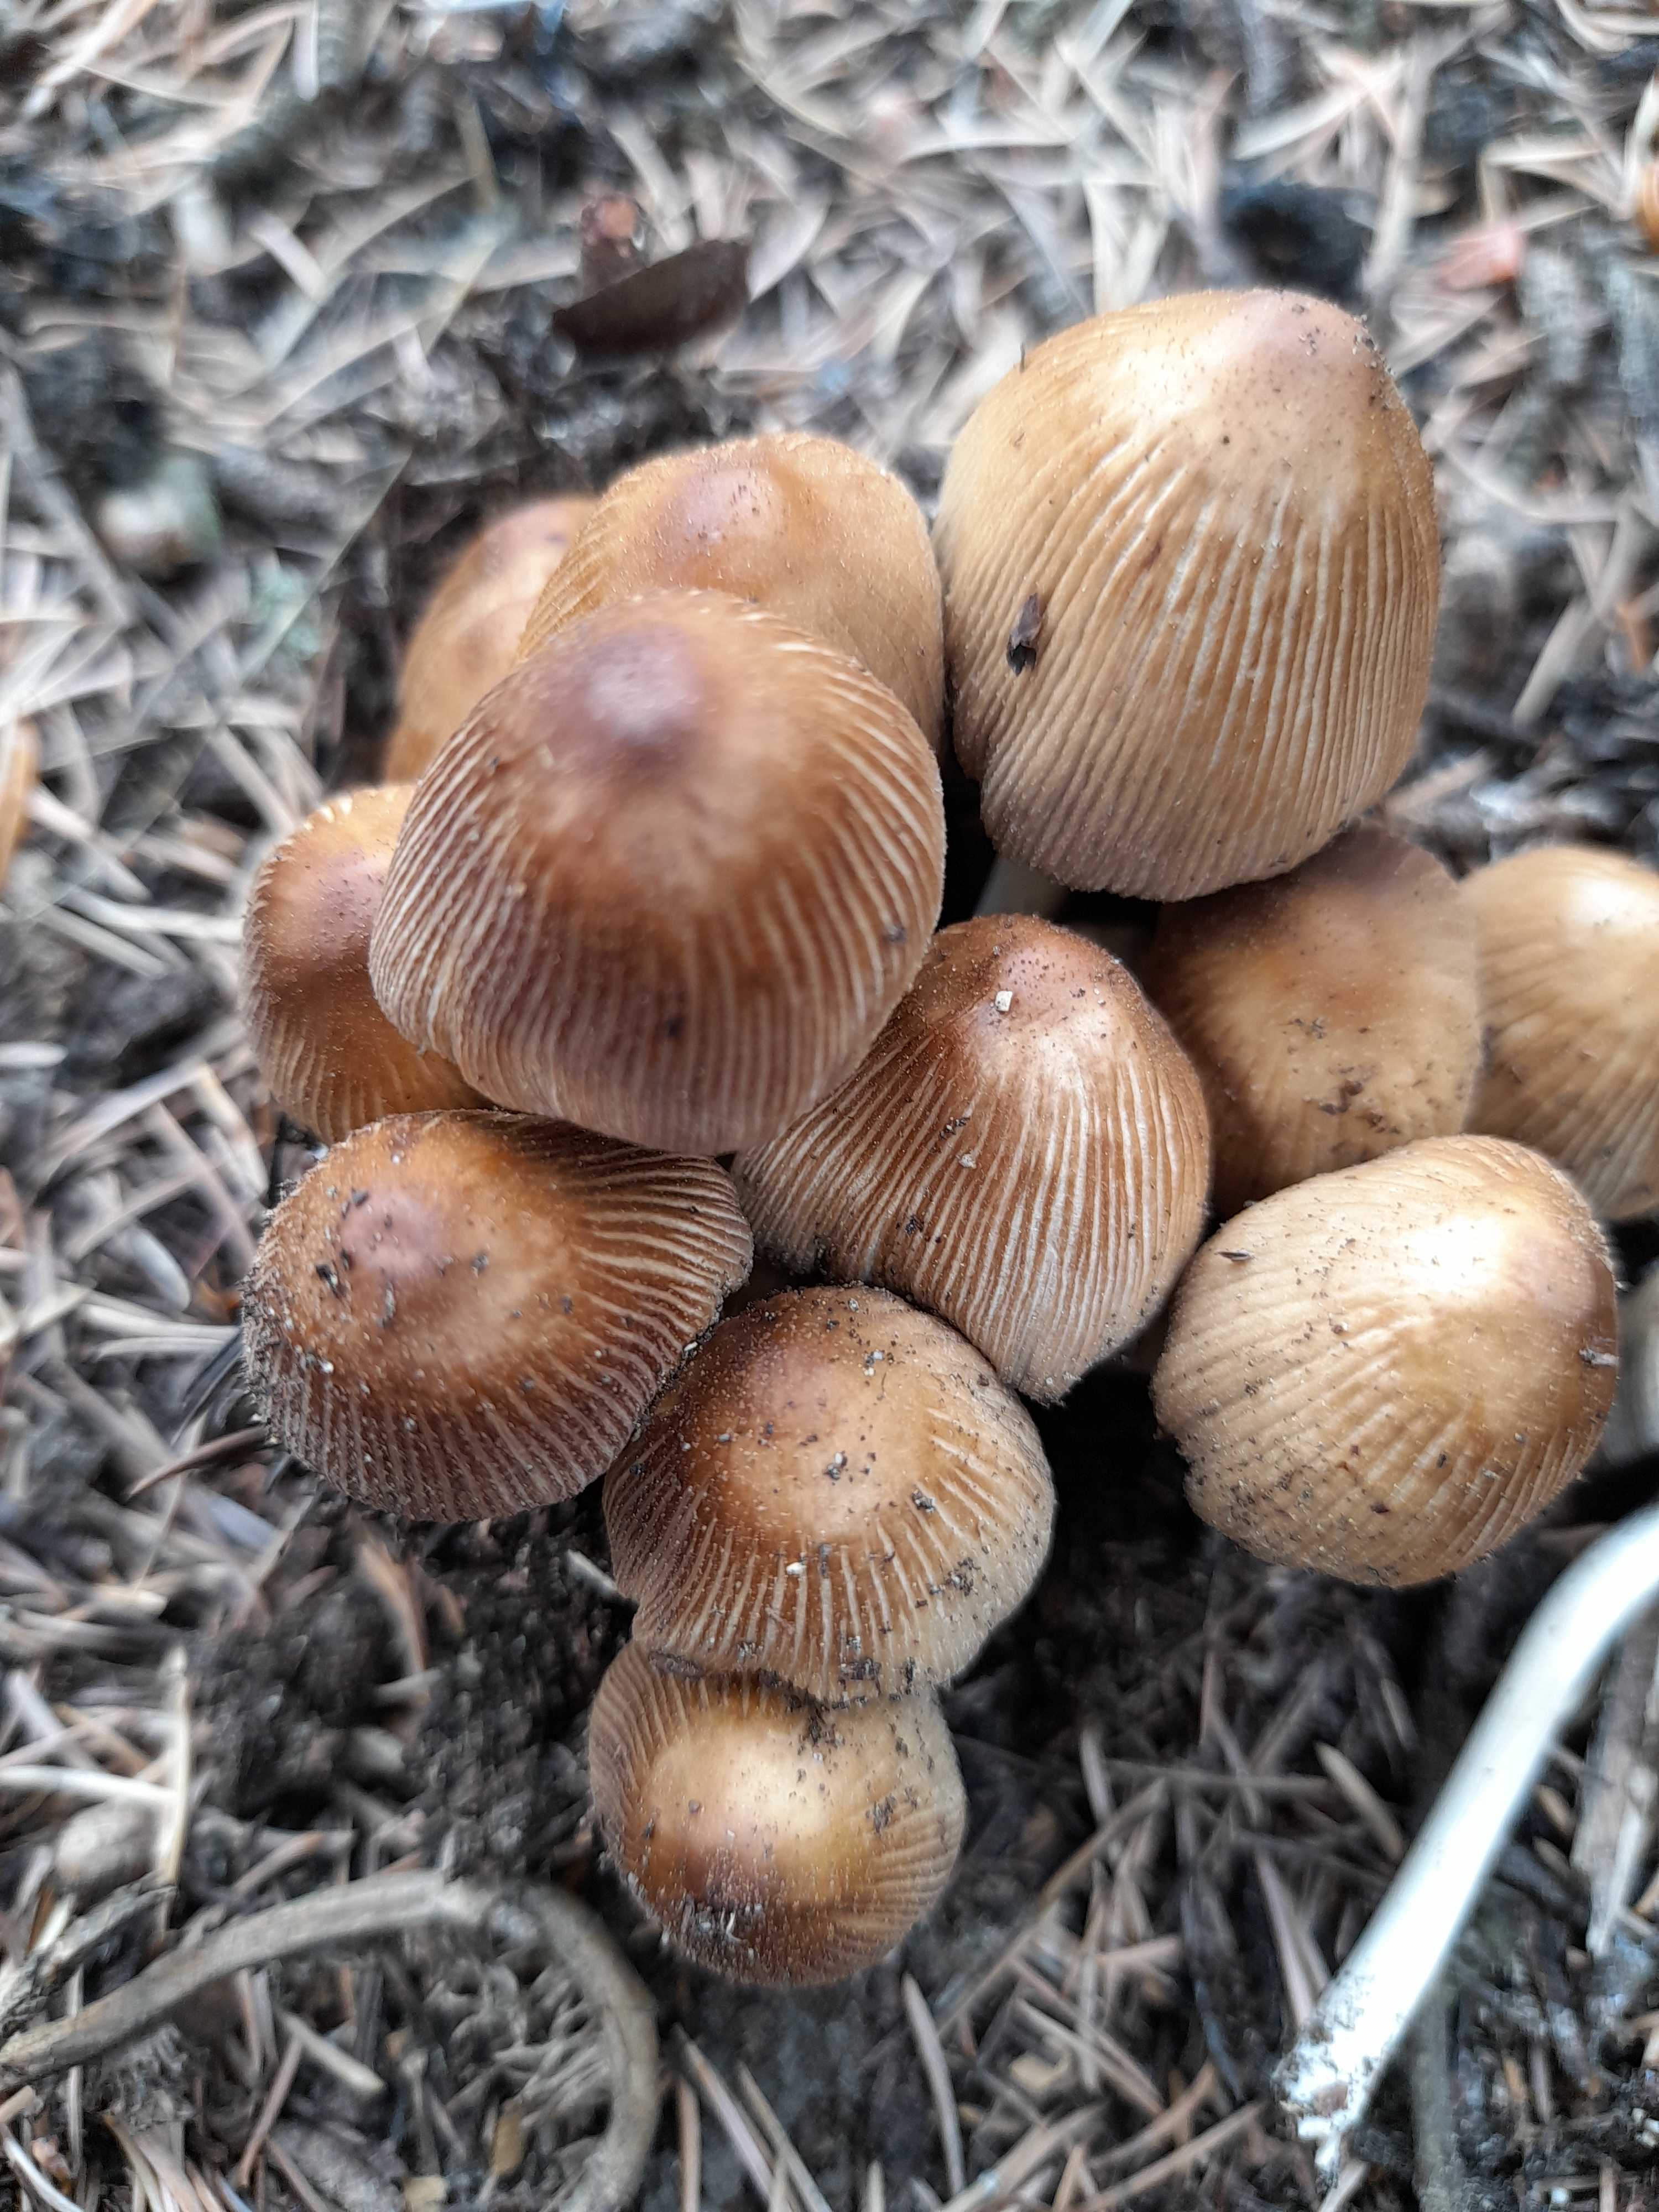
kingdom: Fungi
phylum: Basidiomycota
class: Agaricomycetes
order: Agaricales
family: Psathyrellaceae
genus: Coprinellus
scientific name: Coprinellus micaceus
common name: glimmer-blækhat
